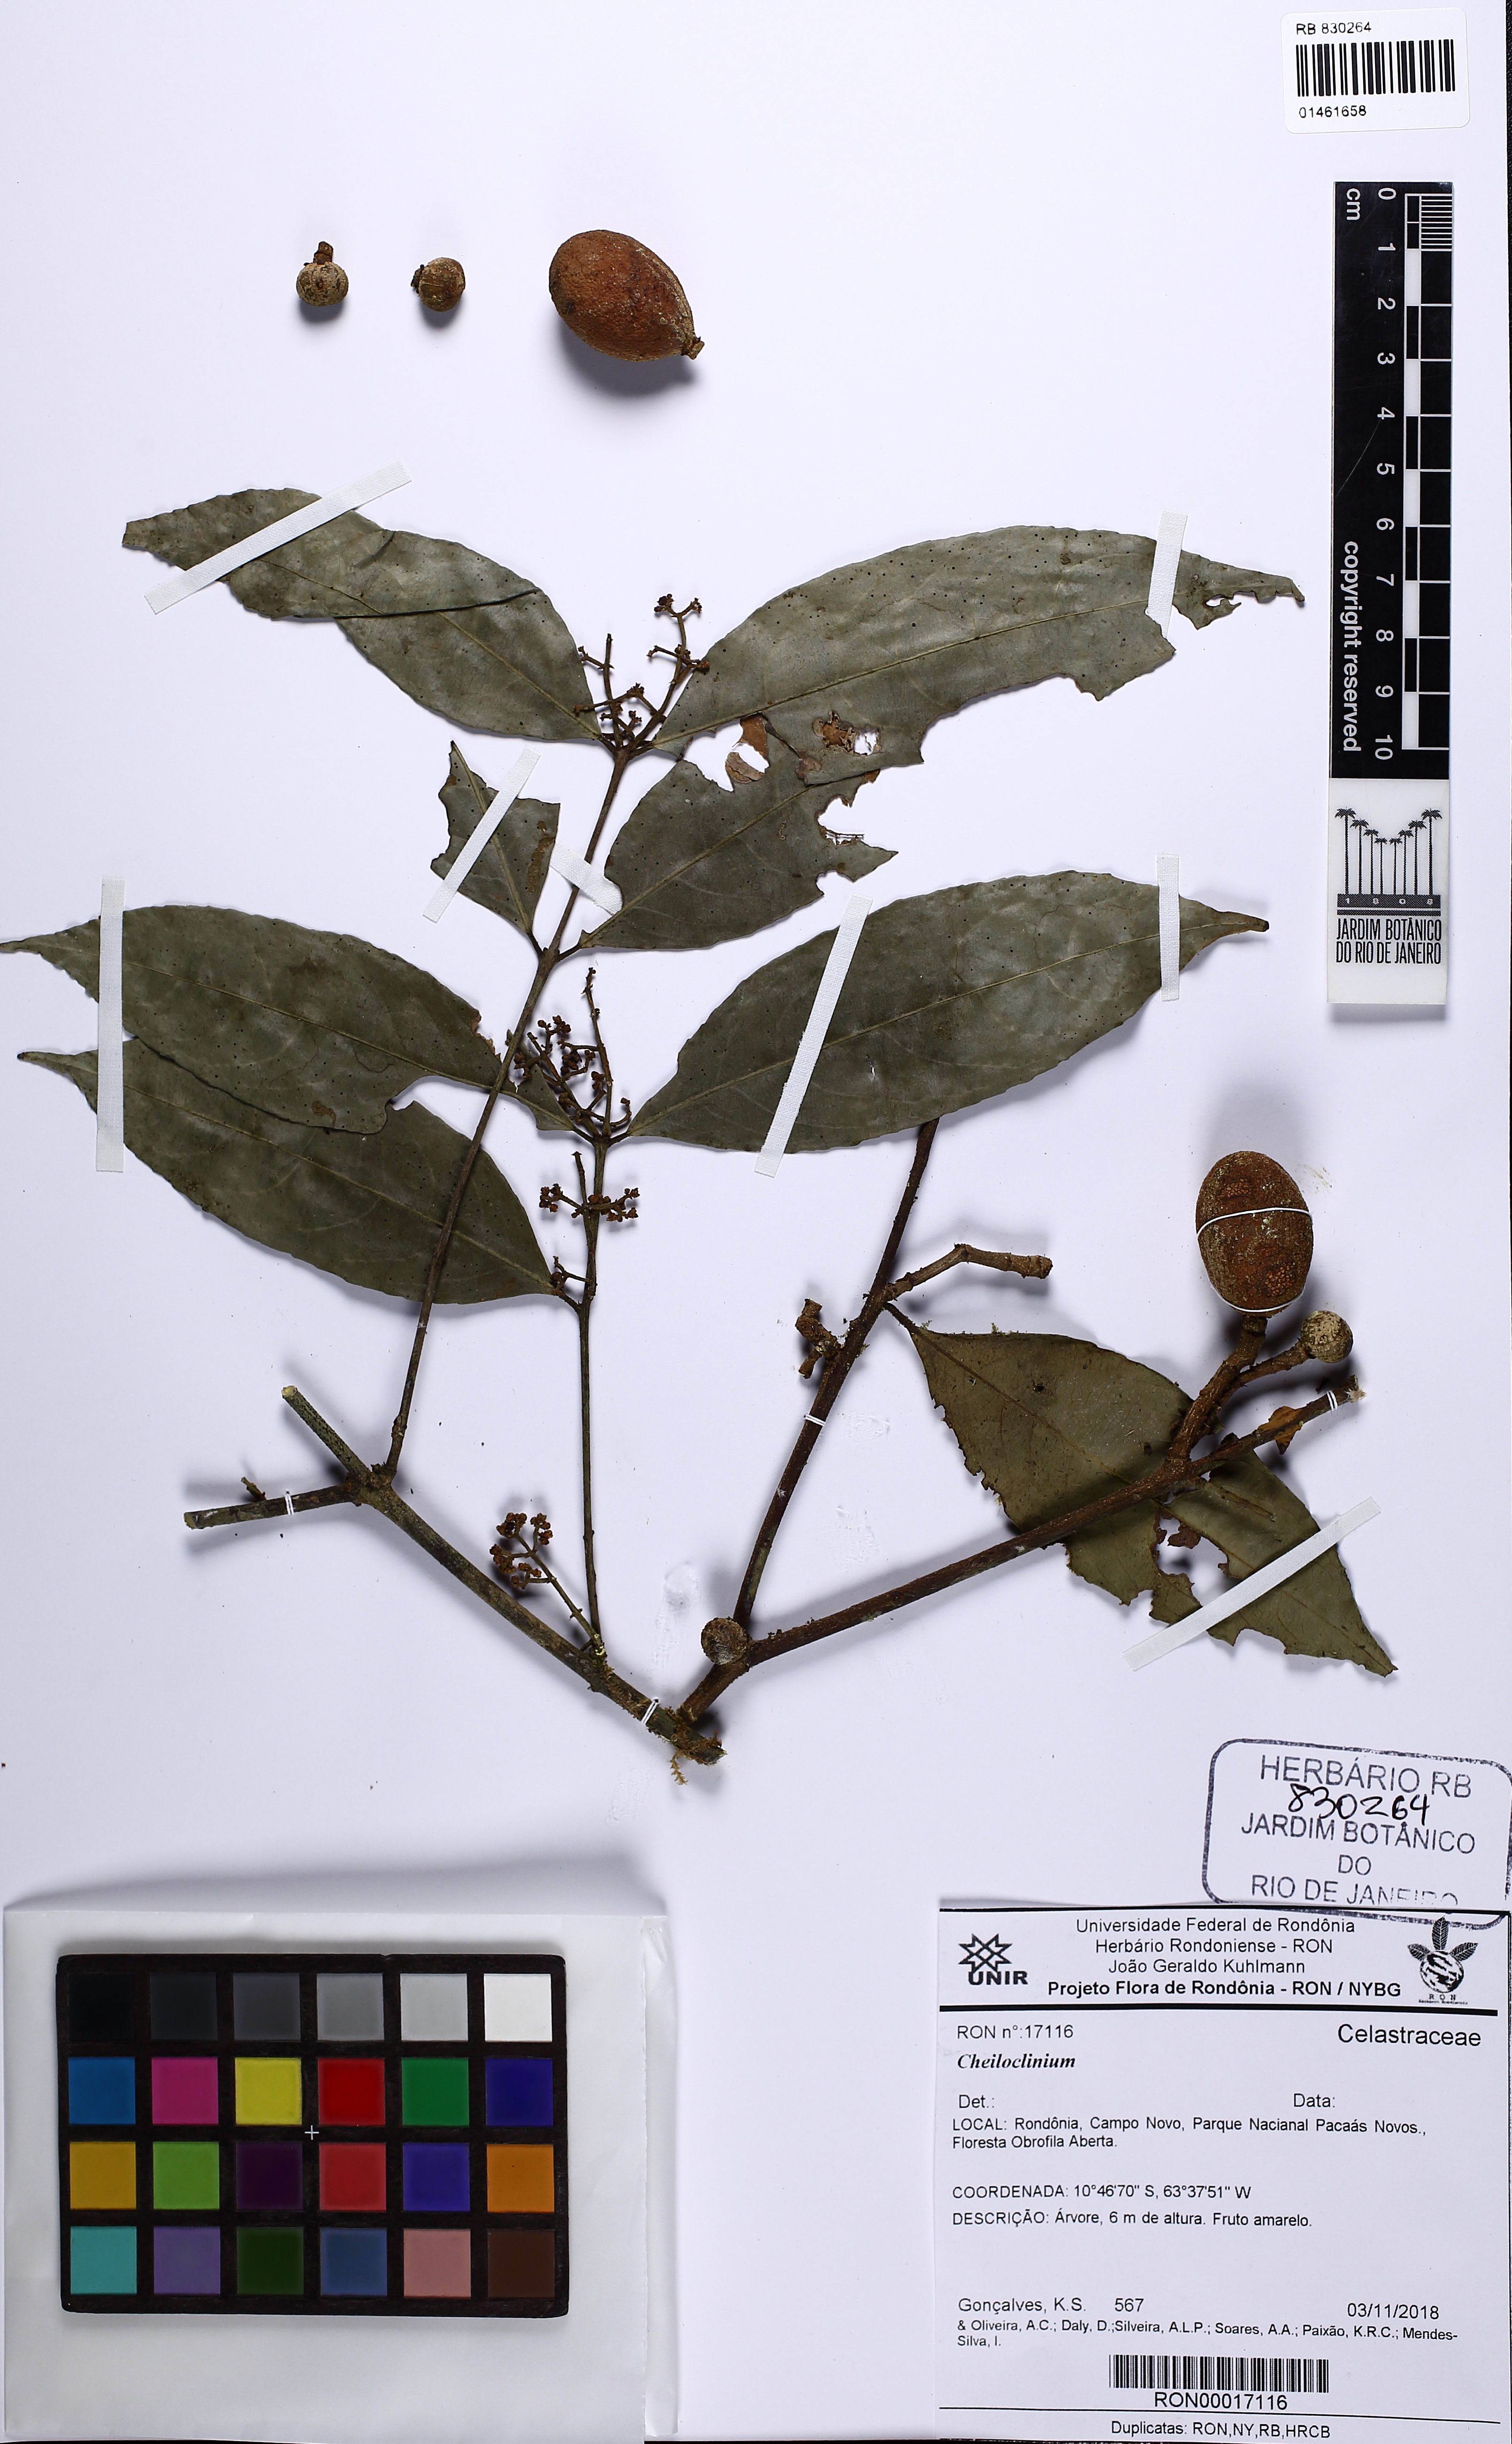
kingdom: Plantae
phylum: Tracheophyta
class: Magnoliopsida
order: Celastrales
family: Celastraceae
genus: Cheiloclinium
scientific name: Cheiloclinium
